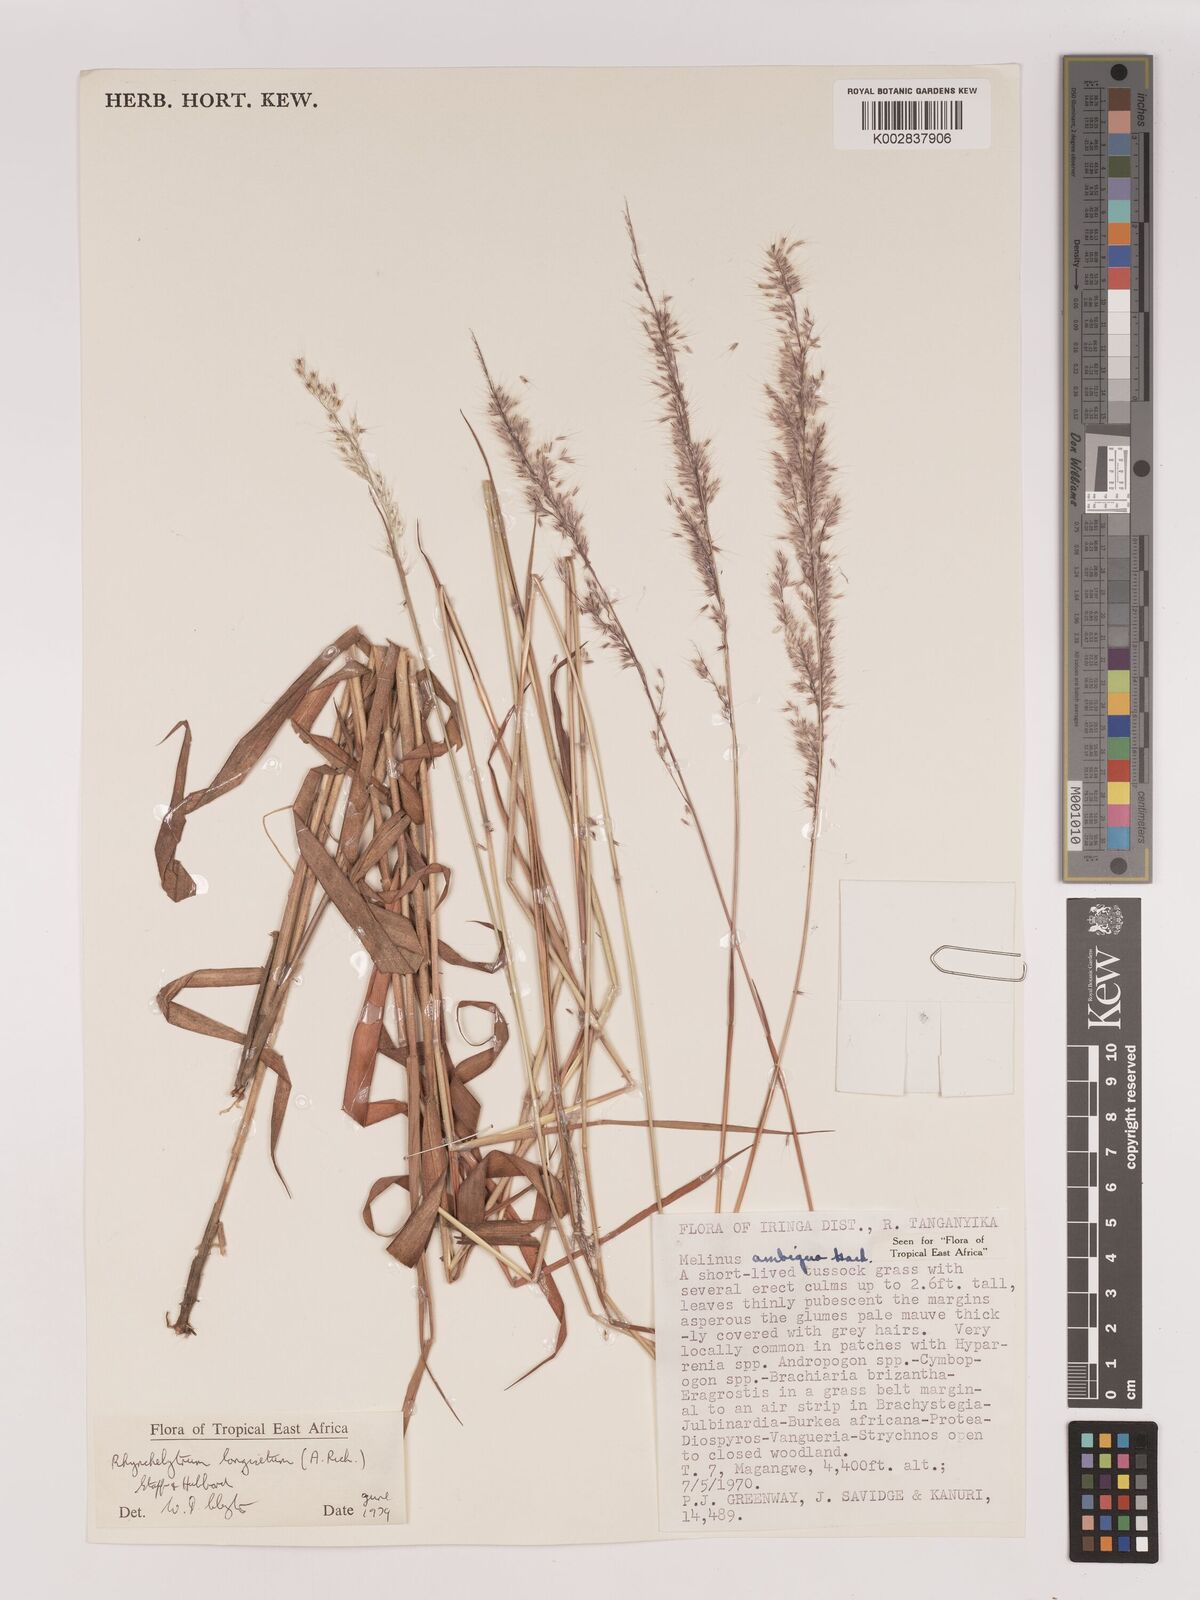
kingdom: Plantae
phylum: Tracheophyta
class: Liliopsida
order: Poales
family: Poaceae
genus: Melinis
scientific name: Melinis longiseta
